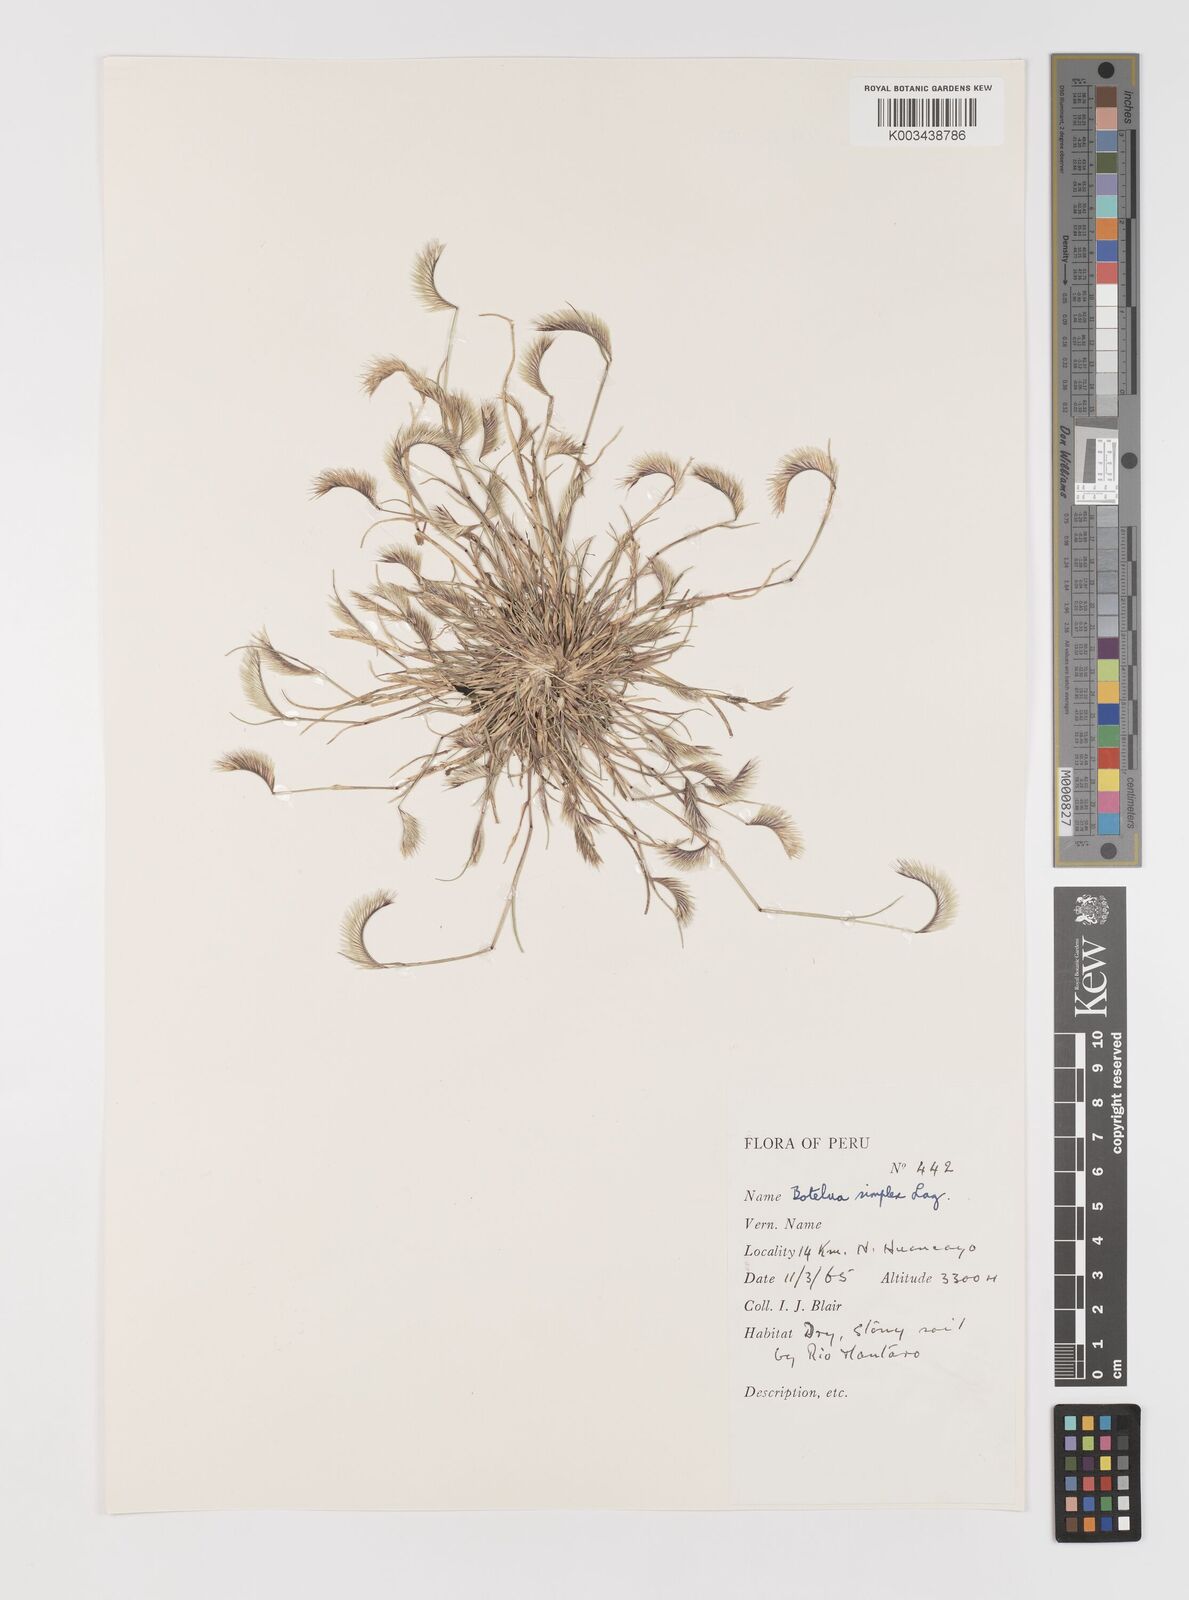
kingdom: Plantae
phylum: Tracheophyta
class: Liliopsida
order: Poales
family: Poaceae
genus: Bouteloua
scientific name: Bouteloua simplex
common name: Mat grama
